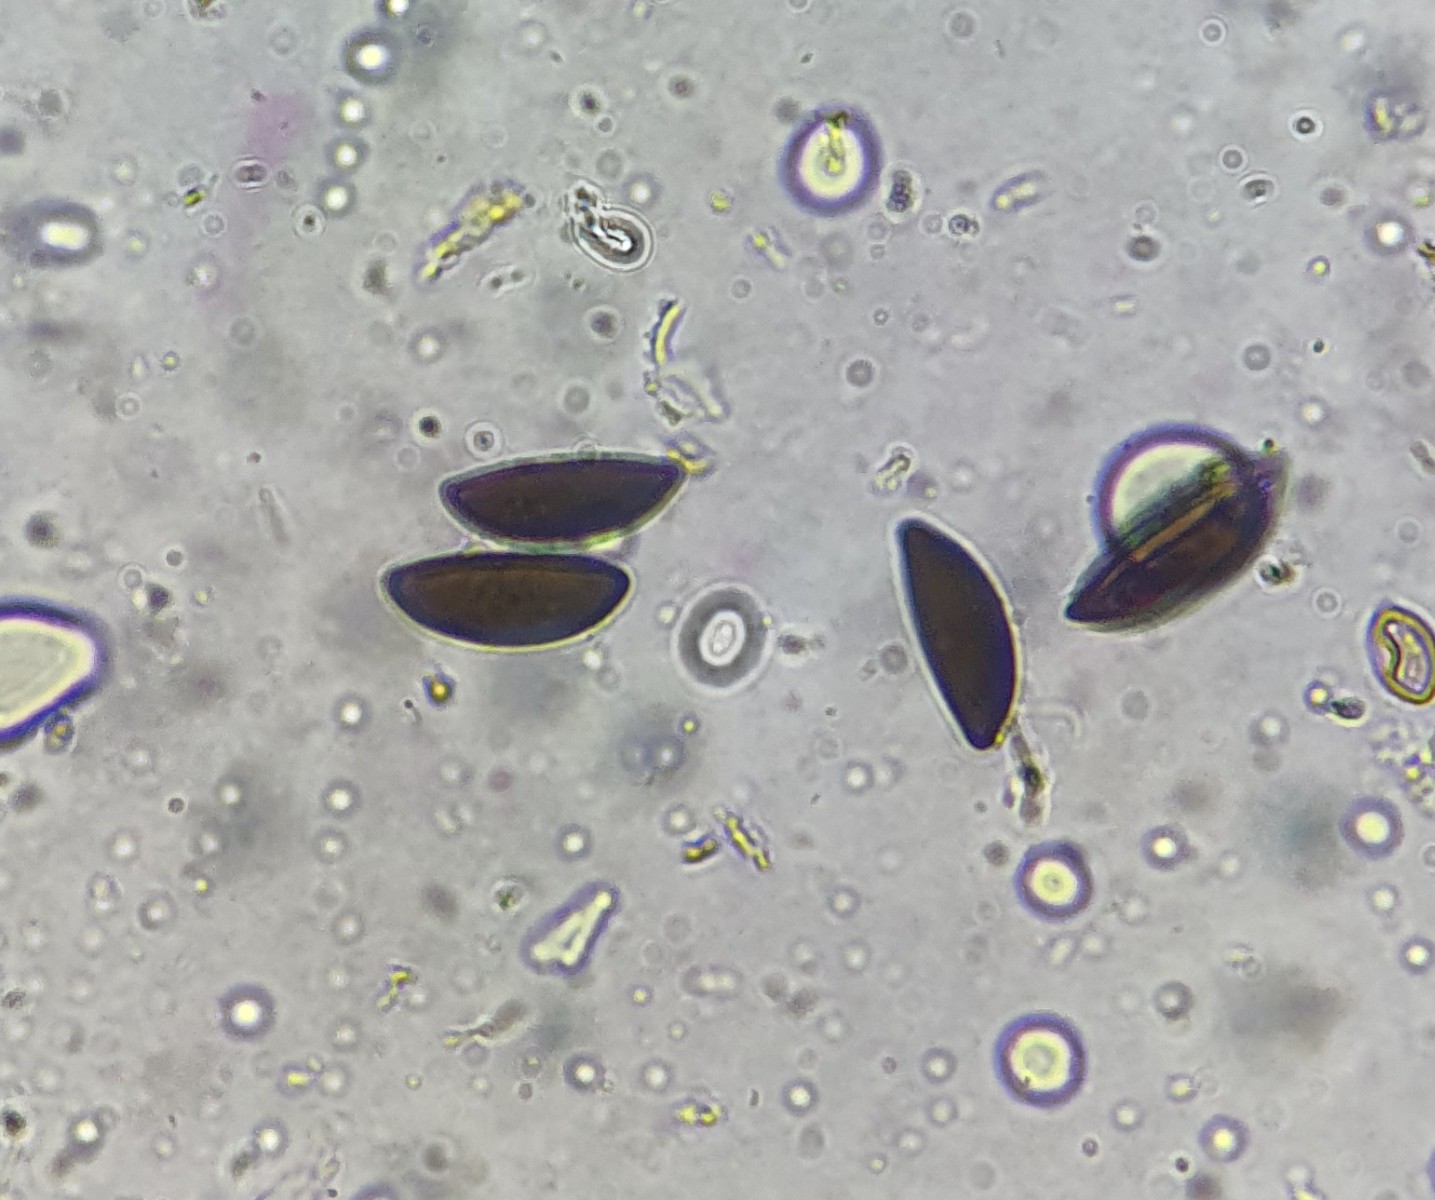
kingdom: Fungi
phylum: Ascomycota
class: Sordariomycetes
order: Xylariales
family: Xylariaceae
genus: Rosellinia
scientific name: Rosellinia
